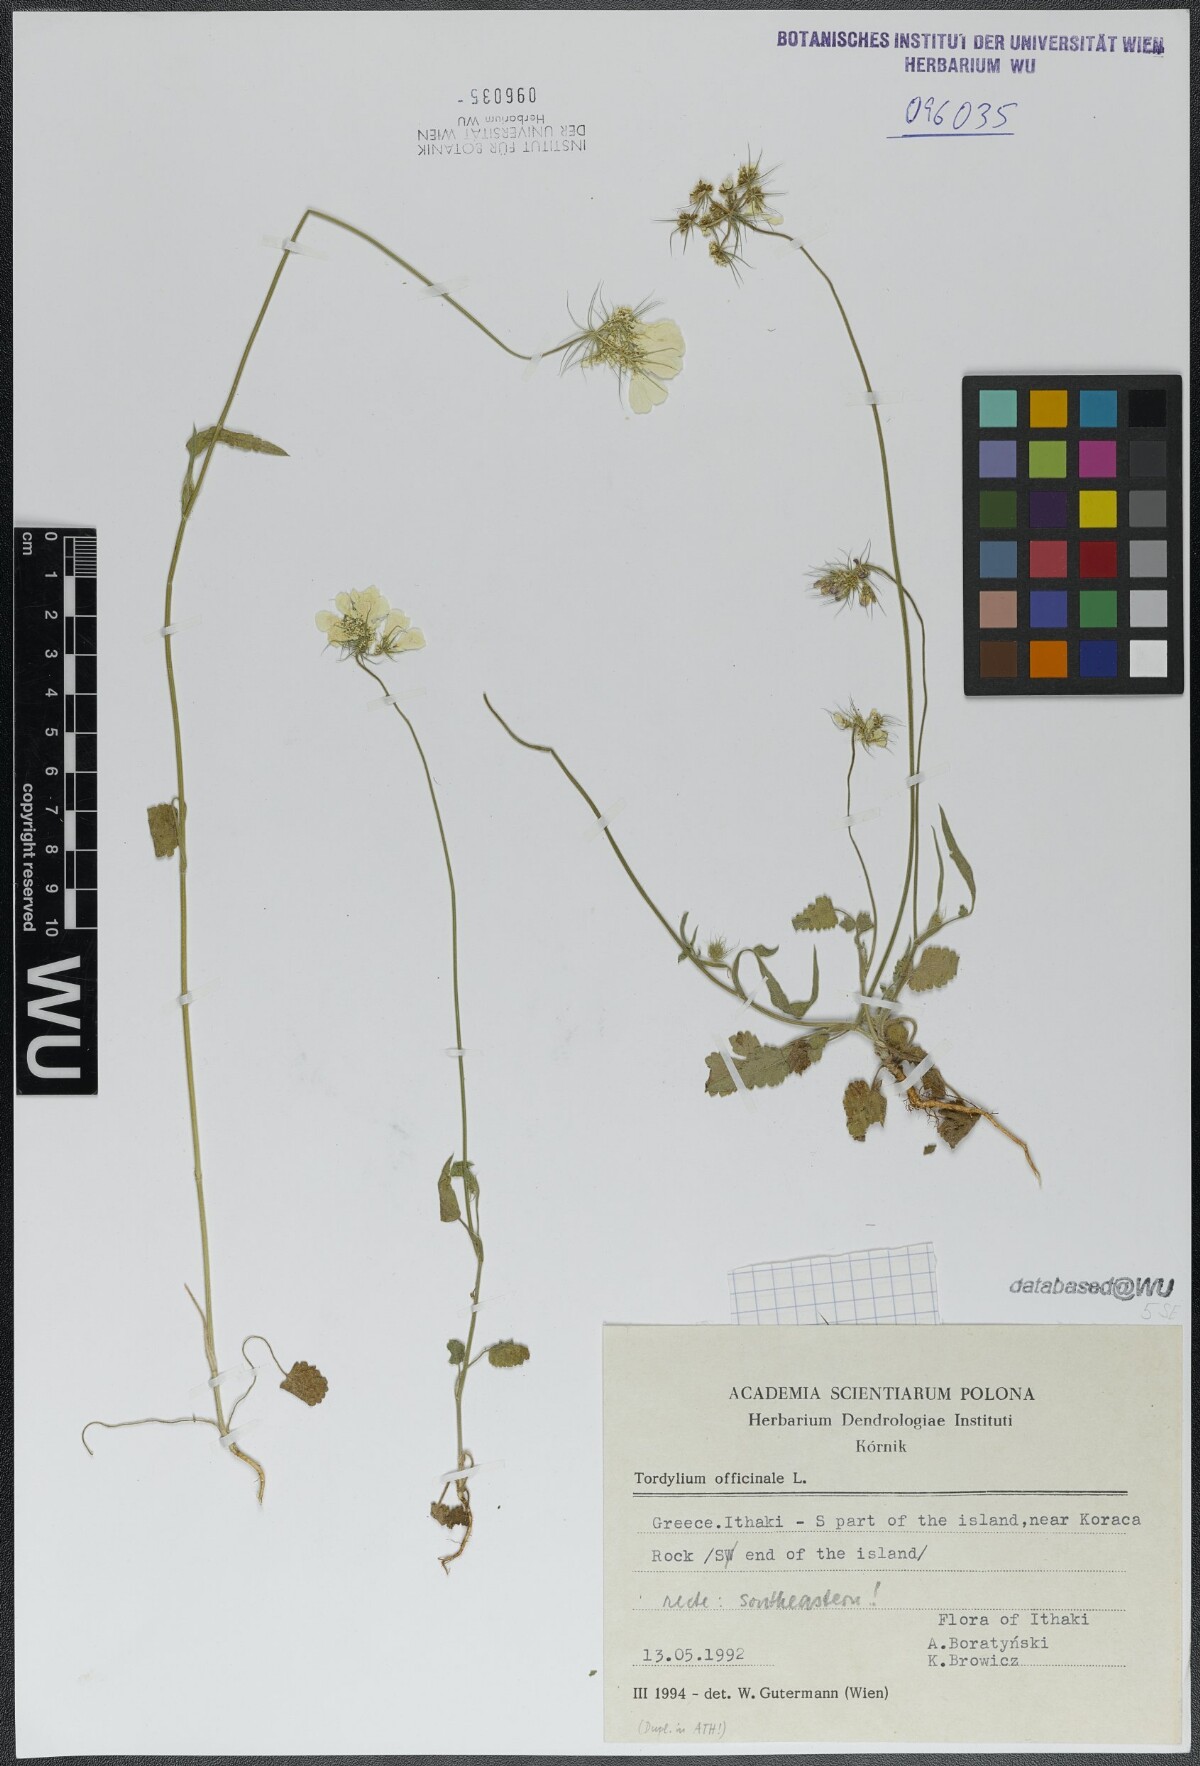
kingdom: Plantae
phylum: Tracheophyta
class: Magnoliopsida
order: Apiales
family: Apiaceae
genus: Tordylium
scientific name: Tordylium officinale
